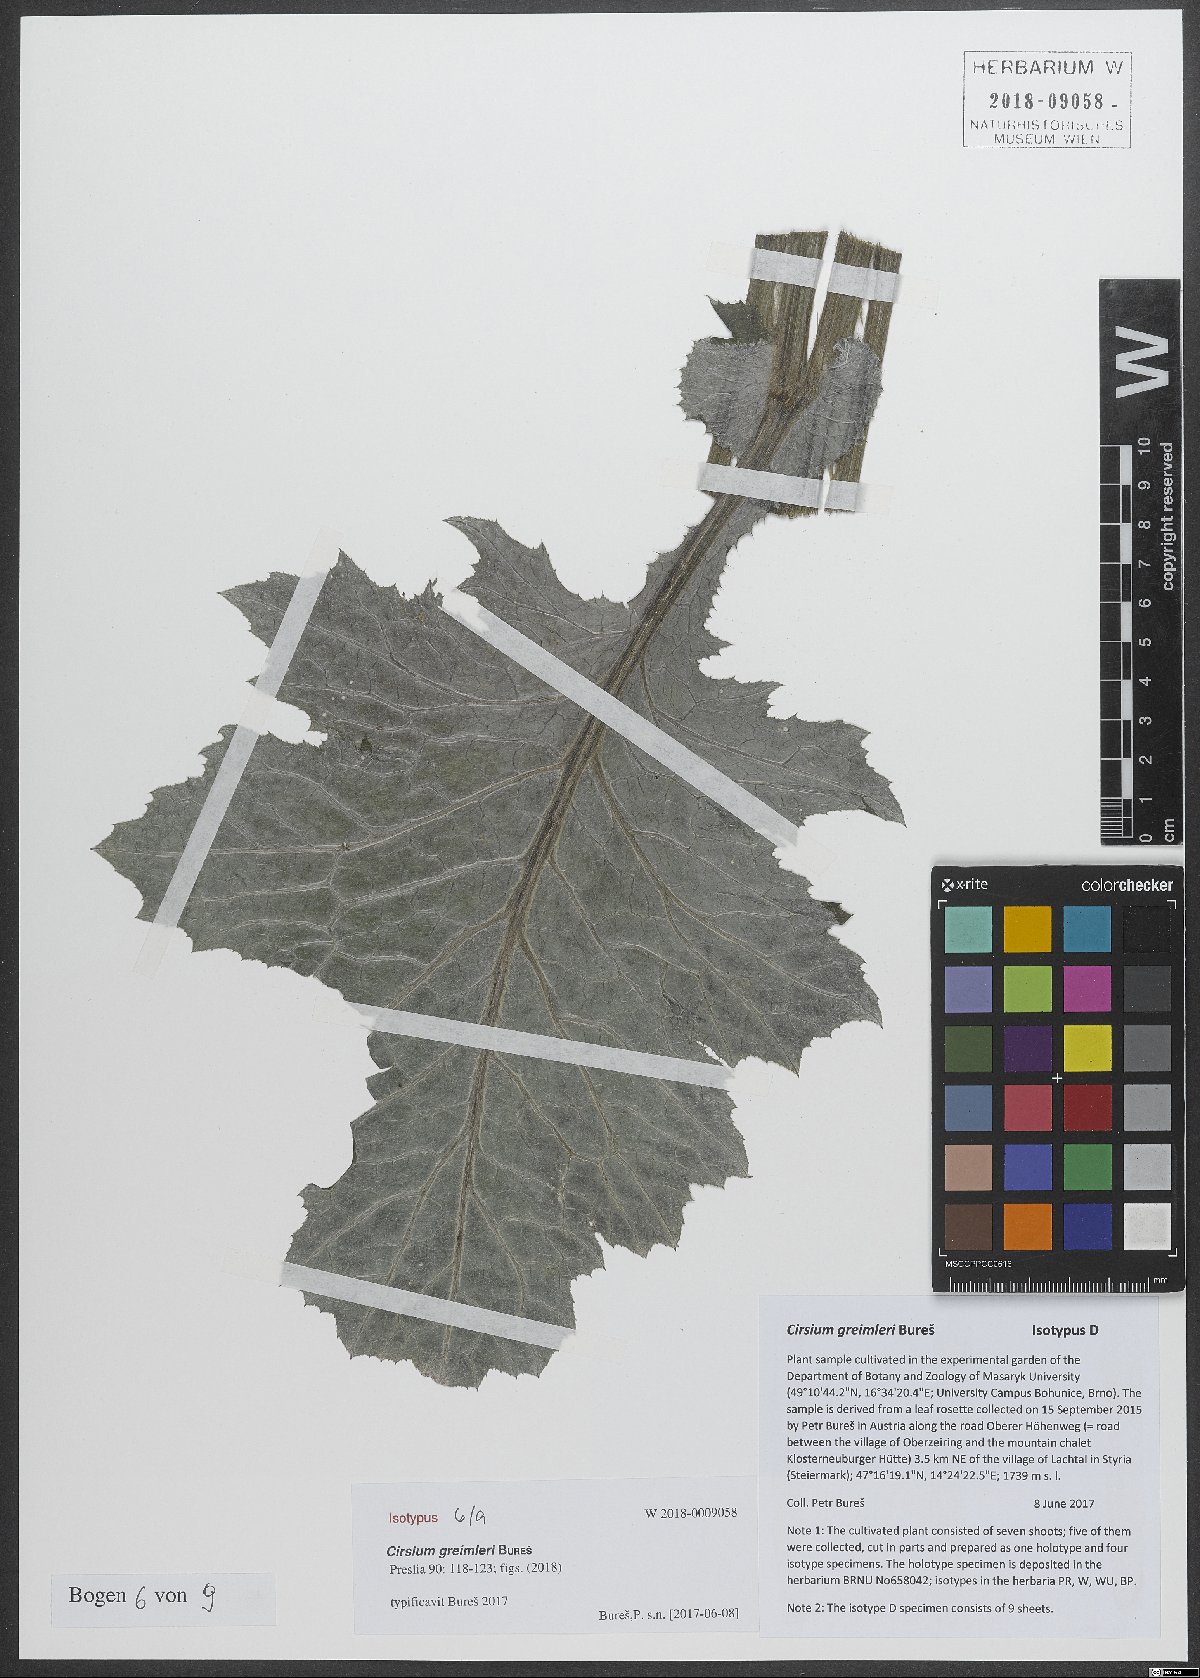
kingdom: Plantae
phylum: Tracheophyta
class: Magnoliopsida
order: Asterales
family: Asteraceae
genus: Cirsium
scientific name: Cirsium greimleri
